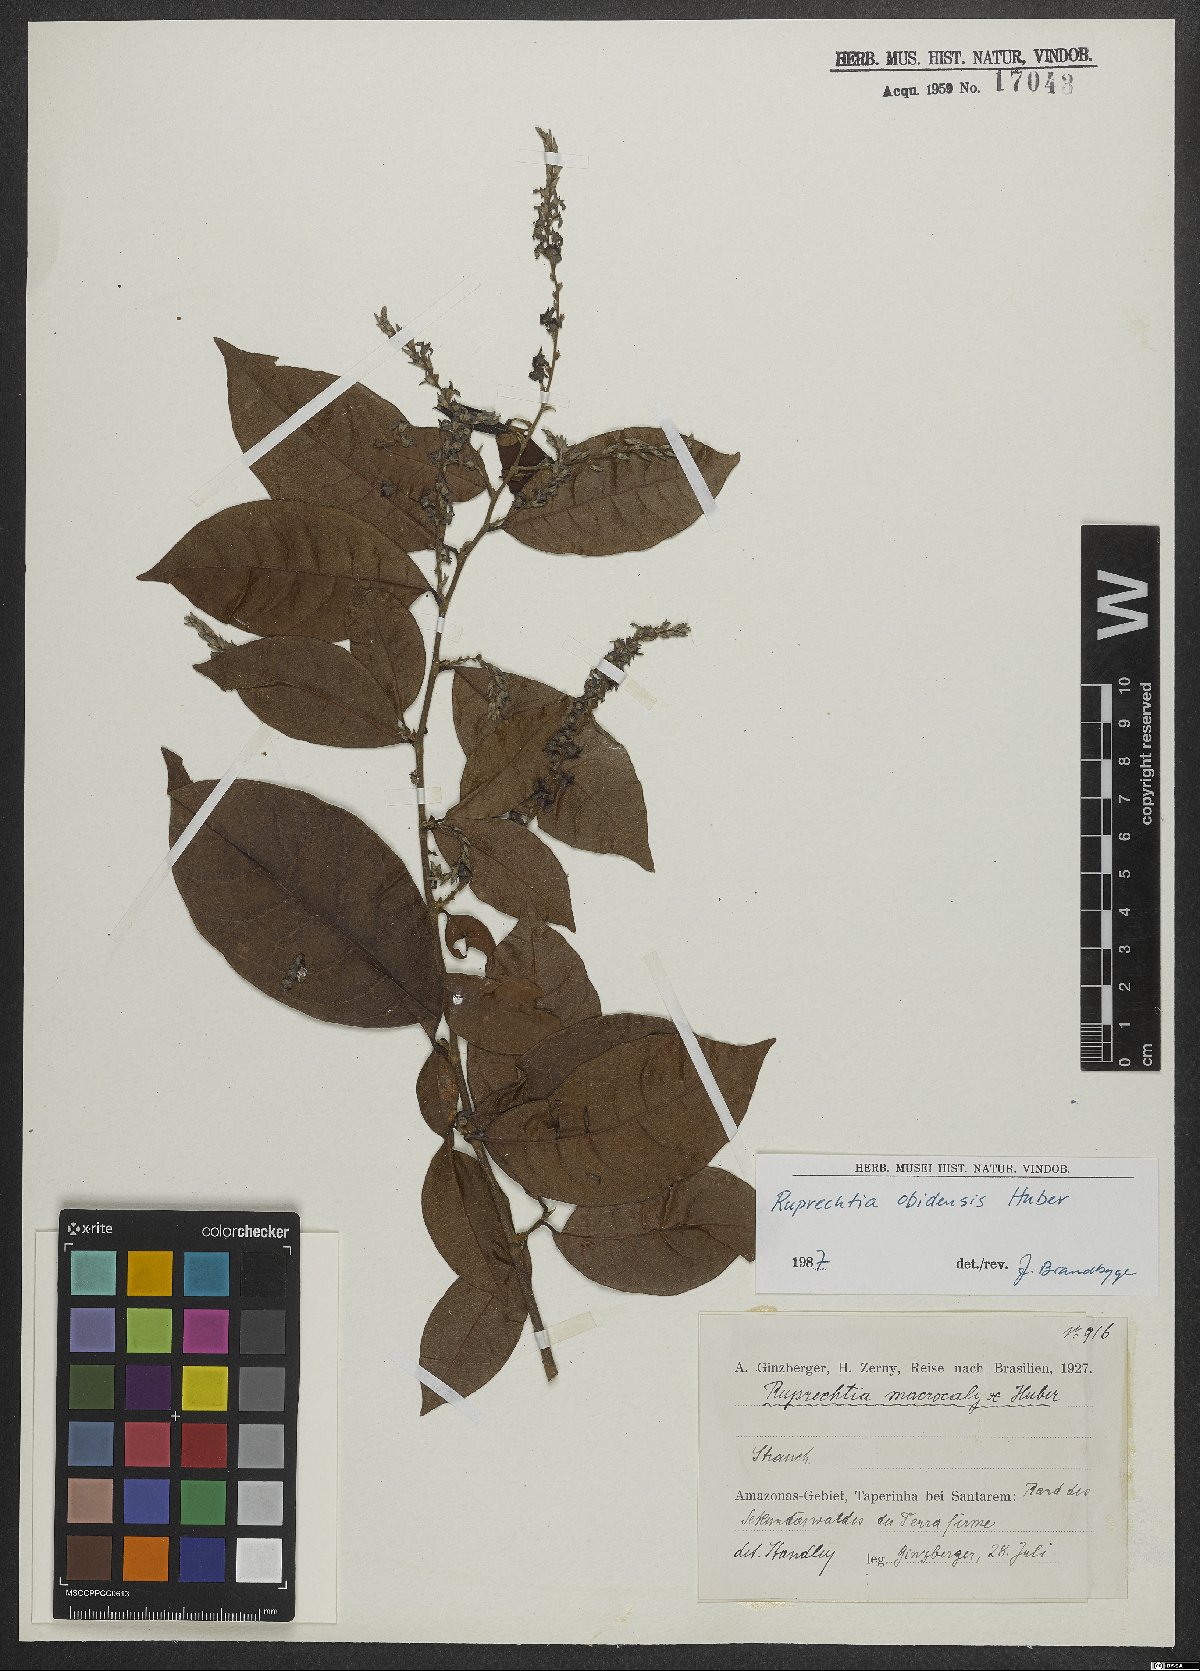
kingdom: Plantae
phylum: Tracheophyta
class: Magnoliopsida
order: Caryophyllales
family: Polygonaceae
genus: Magoniella
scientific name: Magoniella obidensis
